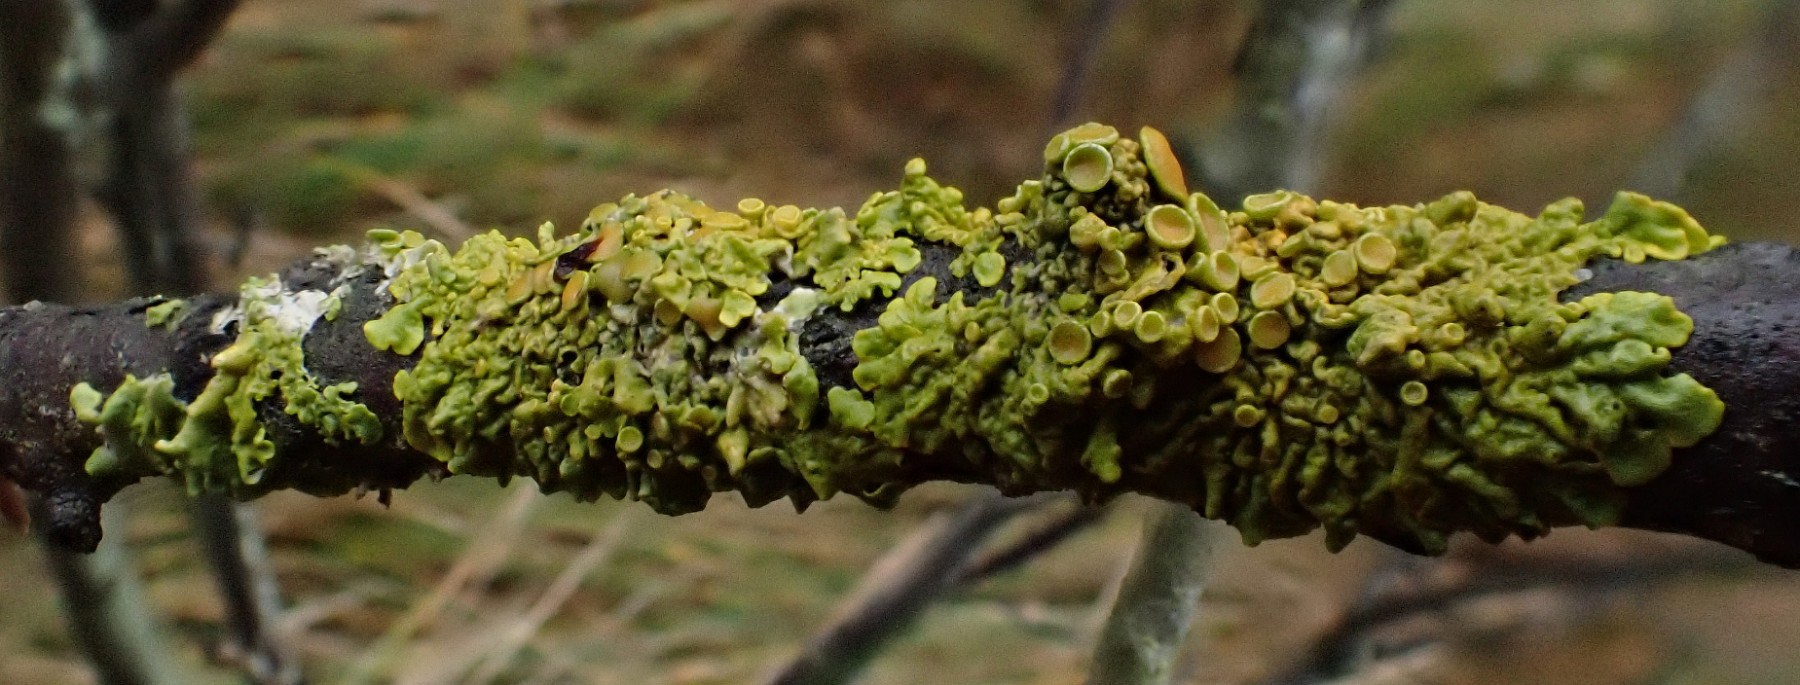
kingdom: Fungi
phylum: Ascomycota
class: Lecanoromycetes
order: Teloschistales
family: Teloschistaceae
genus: Xanthoria
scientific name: Xanthoria parietina
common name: almindelig væggelav
